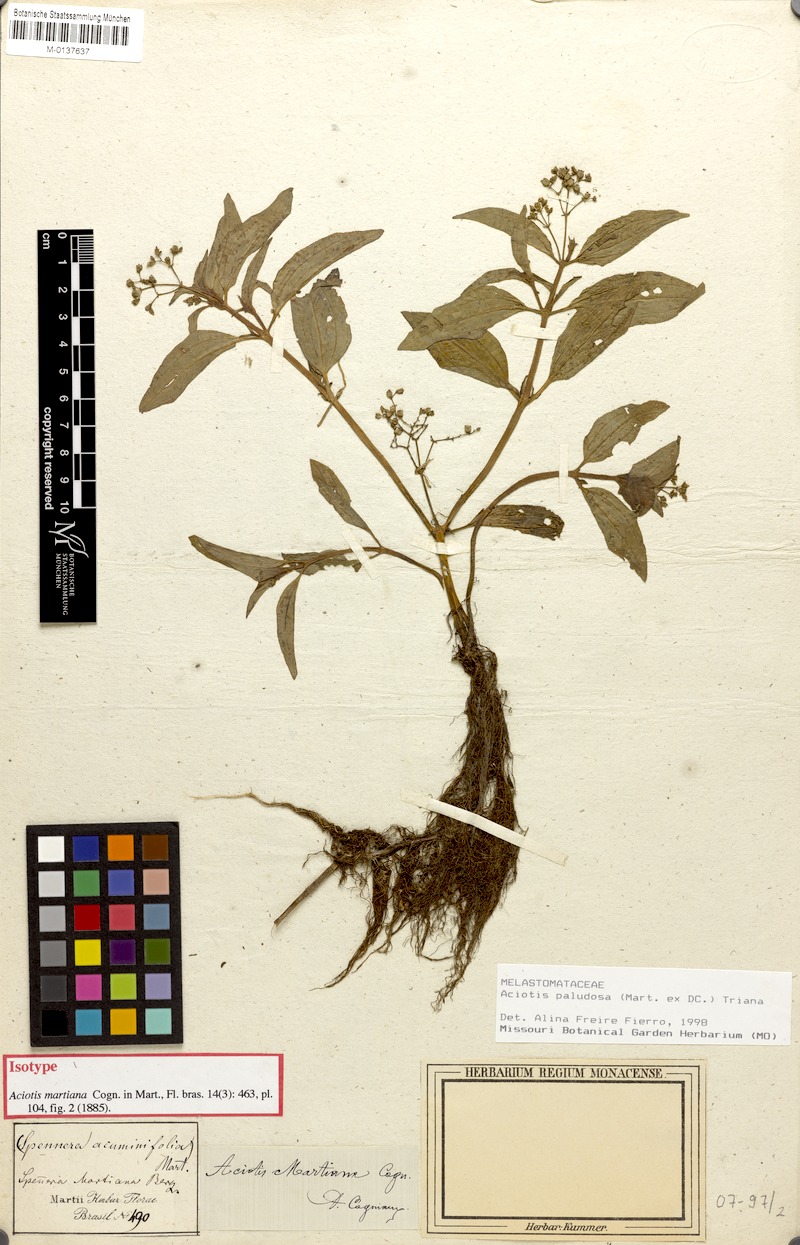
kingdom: Plantae
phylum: Tracheophyta
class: Magnoliopsida
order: Myrtales
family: Melastomataceae
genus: Aciotis
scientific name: Aciotis paludosa
